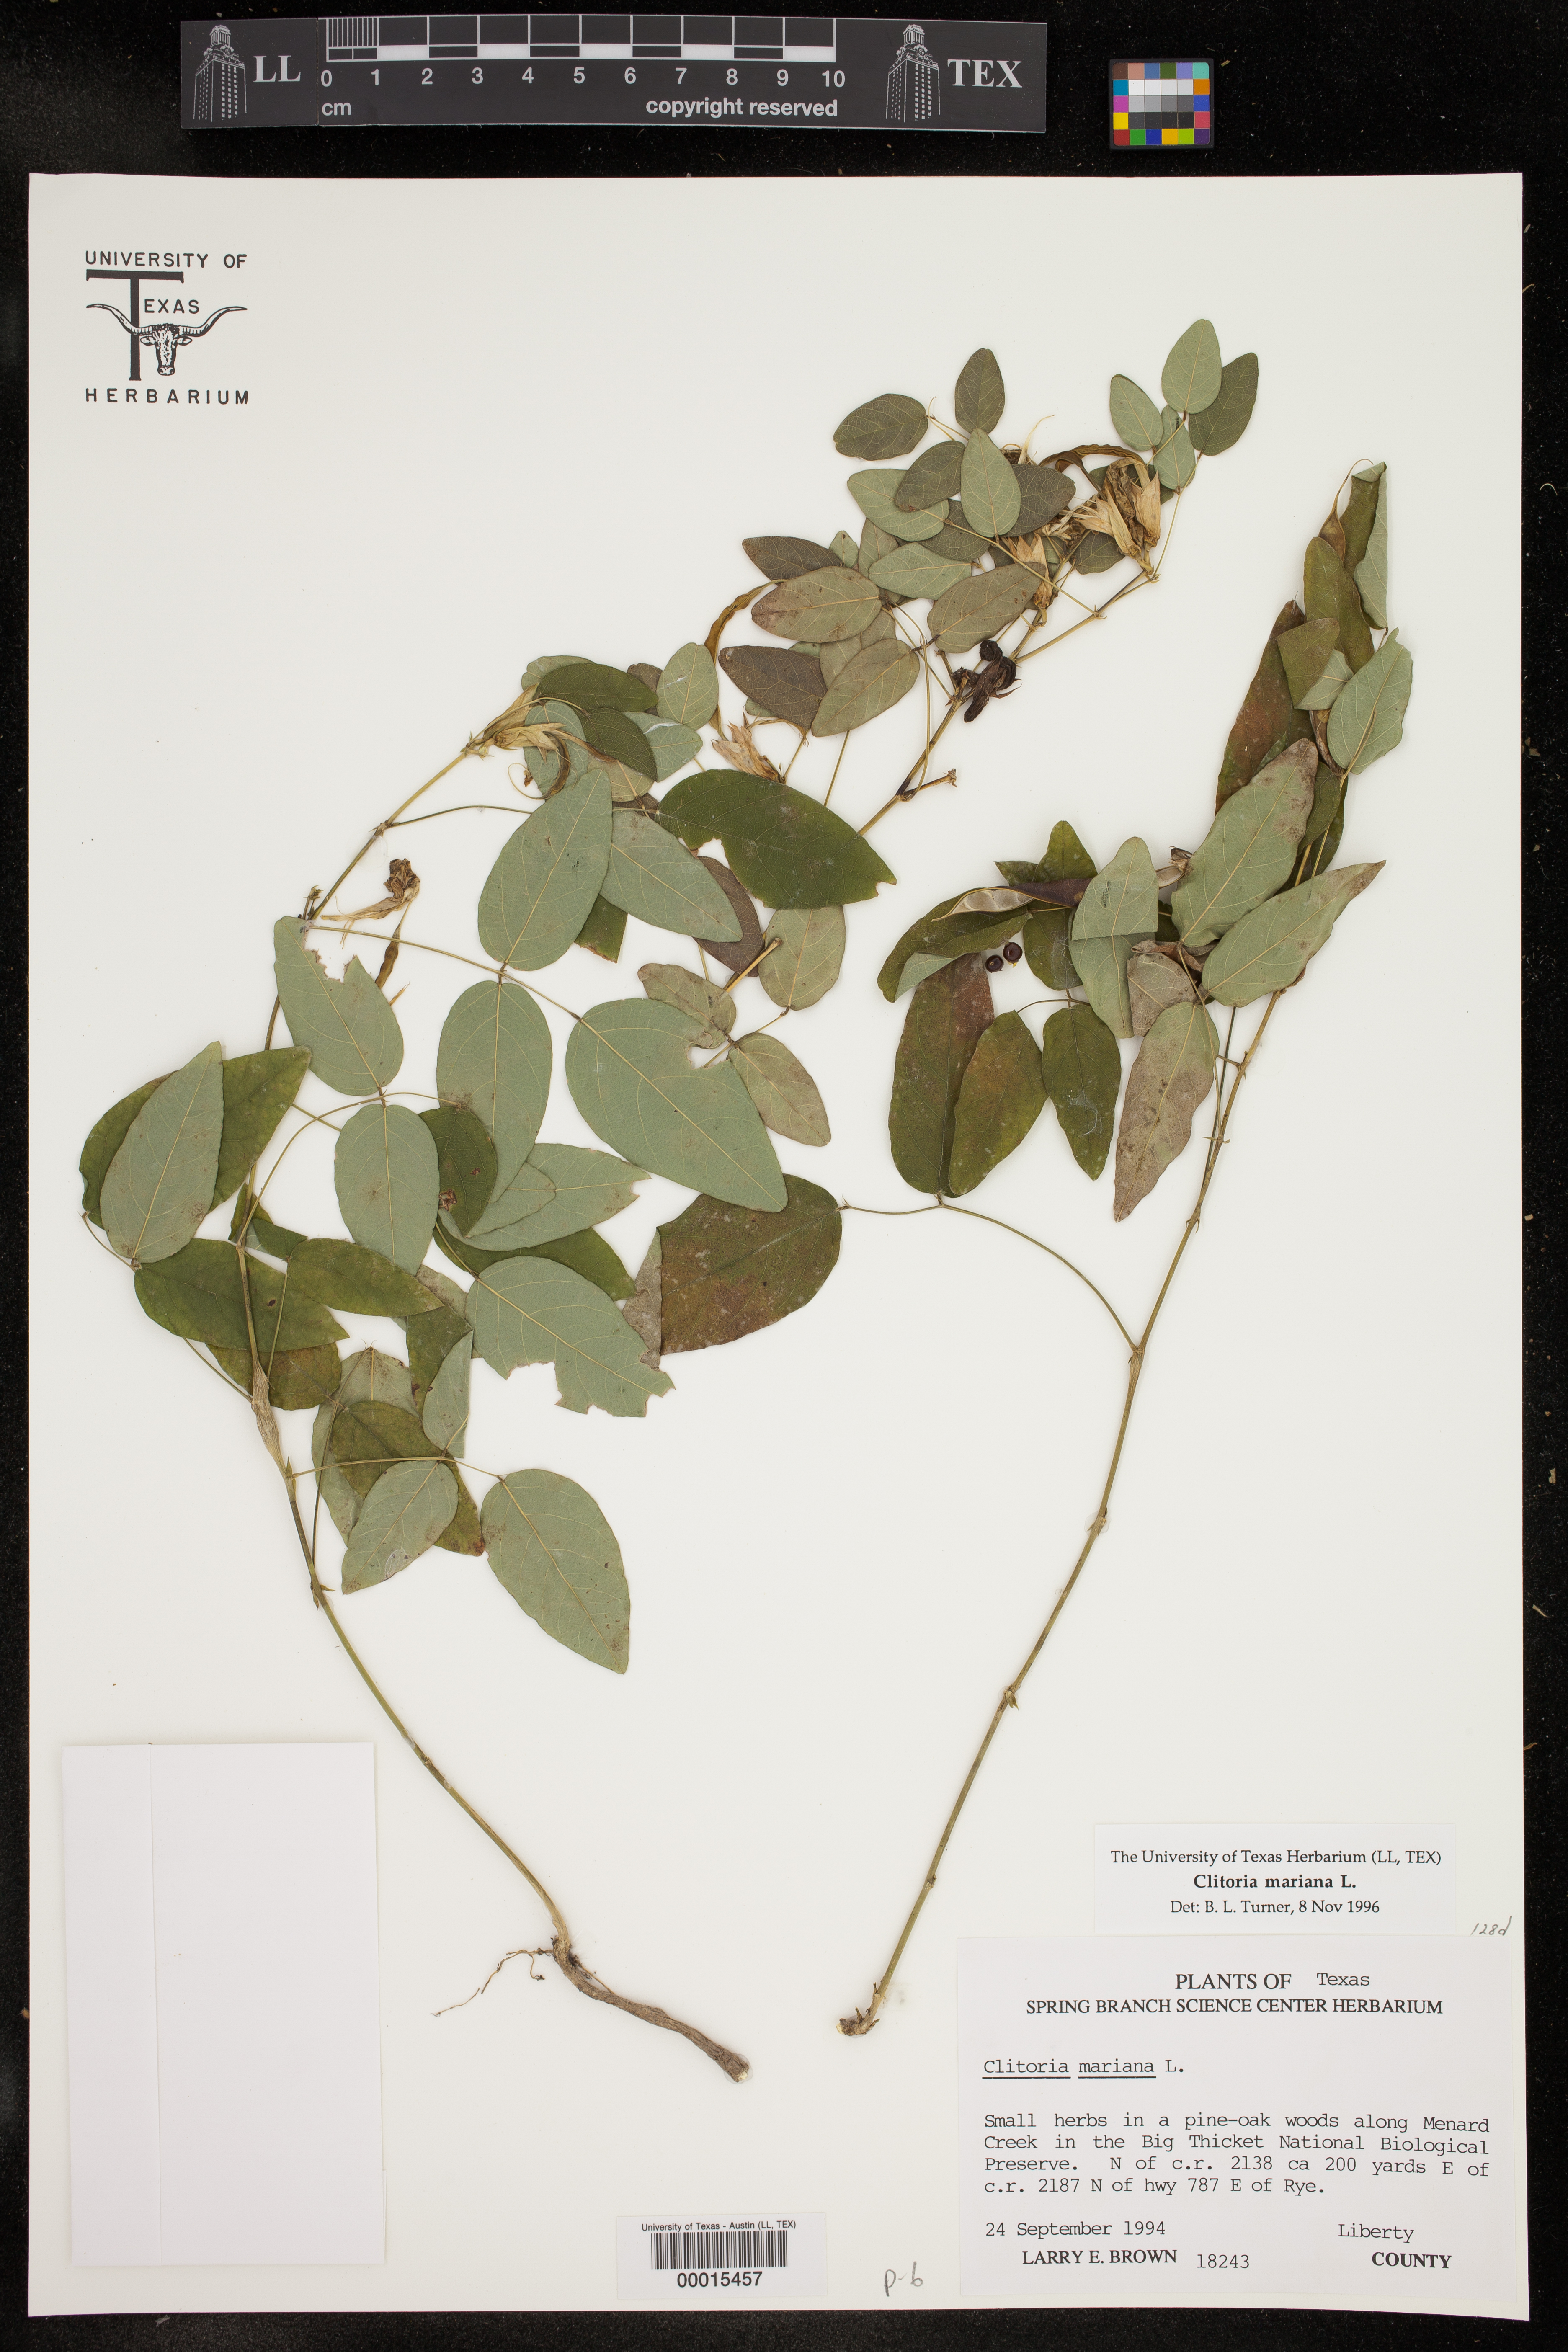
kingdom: Plantae
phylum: Tracheophyta
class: Magnoliopsida
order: Fabales
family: Fabaceae
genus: Clitoria
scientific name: Clitoria mariana
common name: Butterfly-pea
